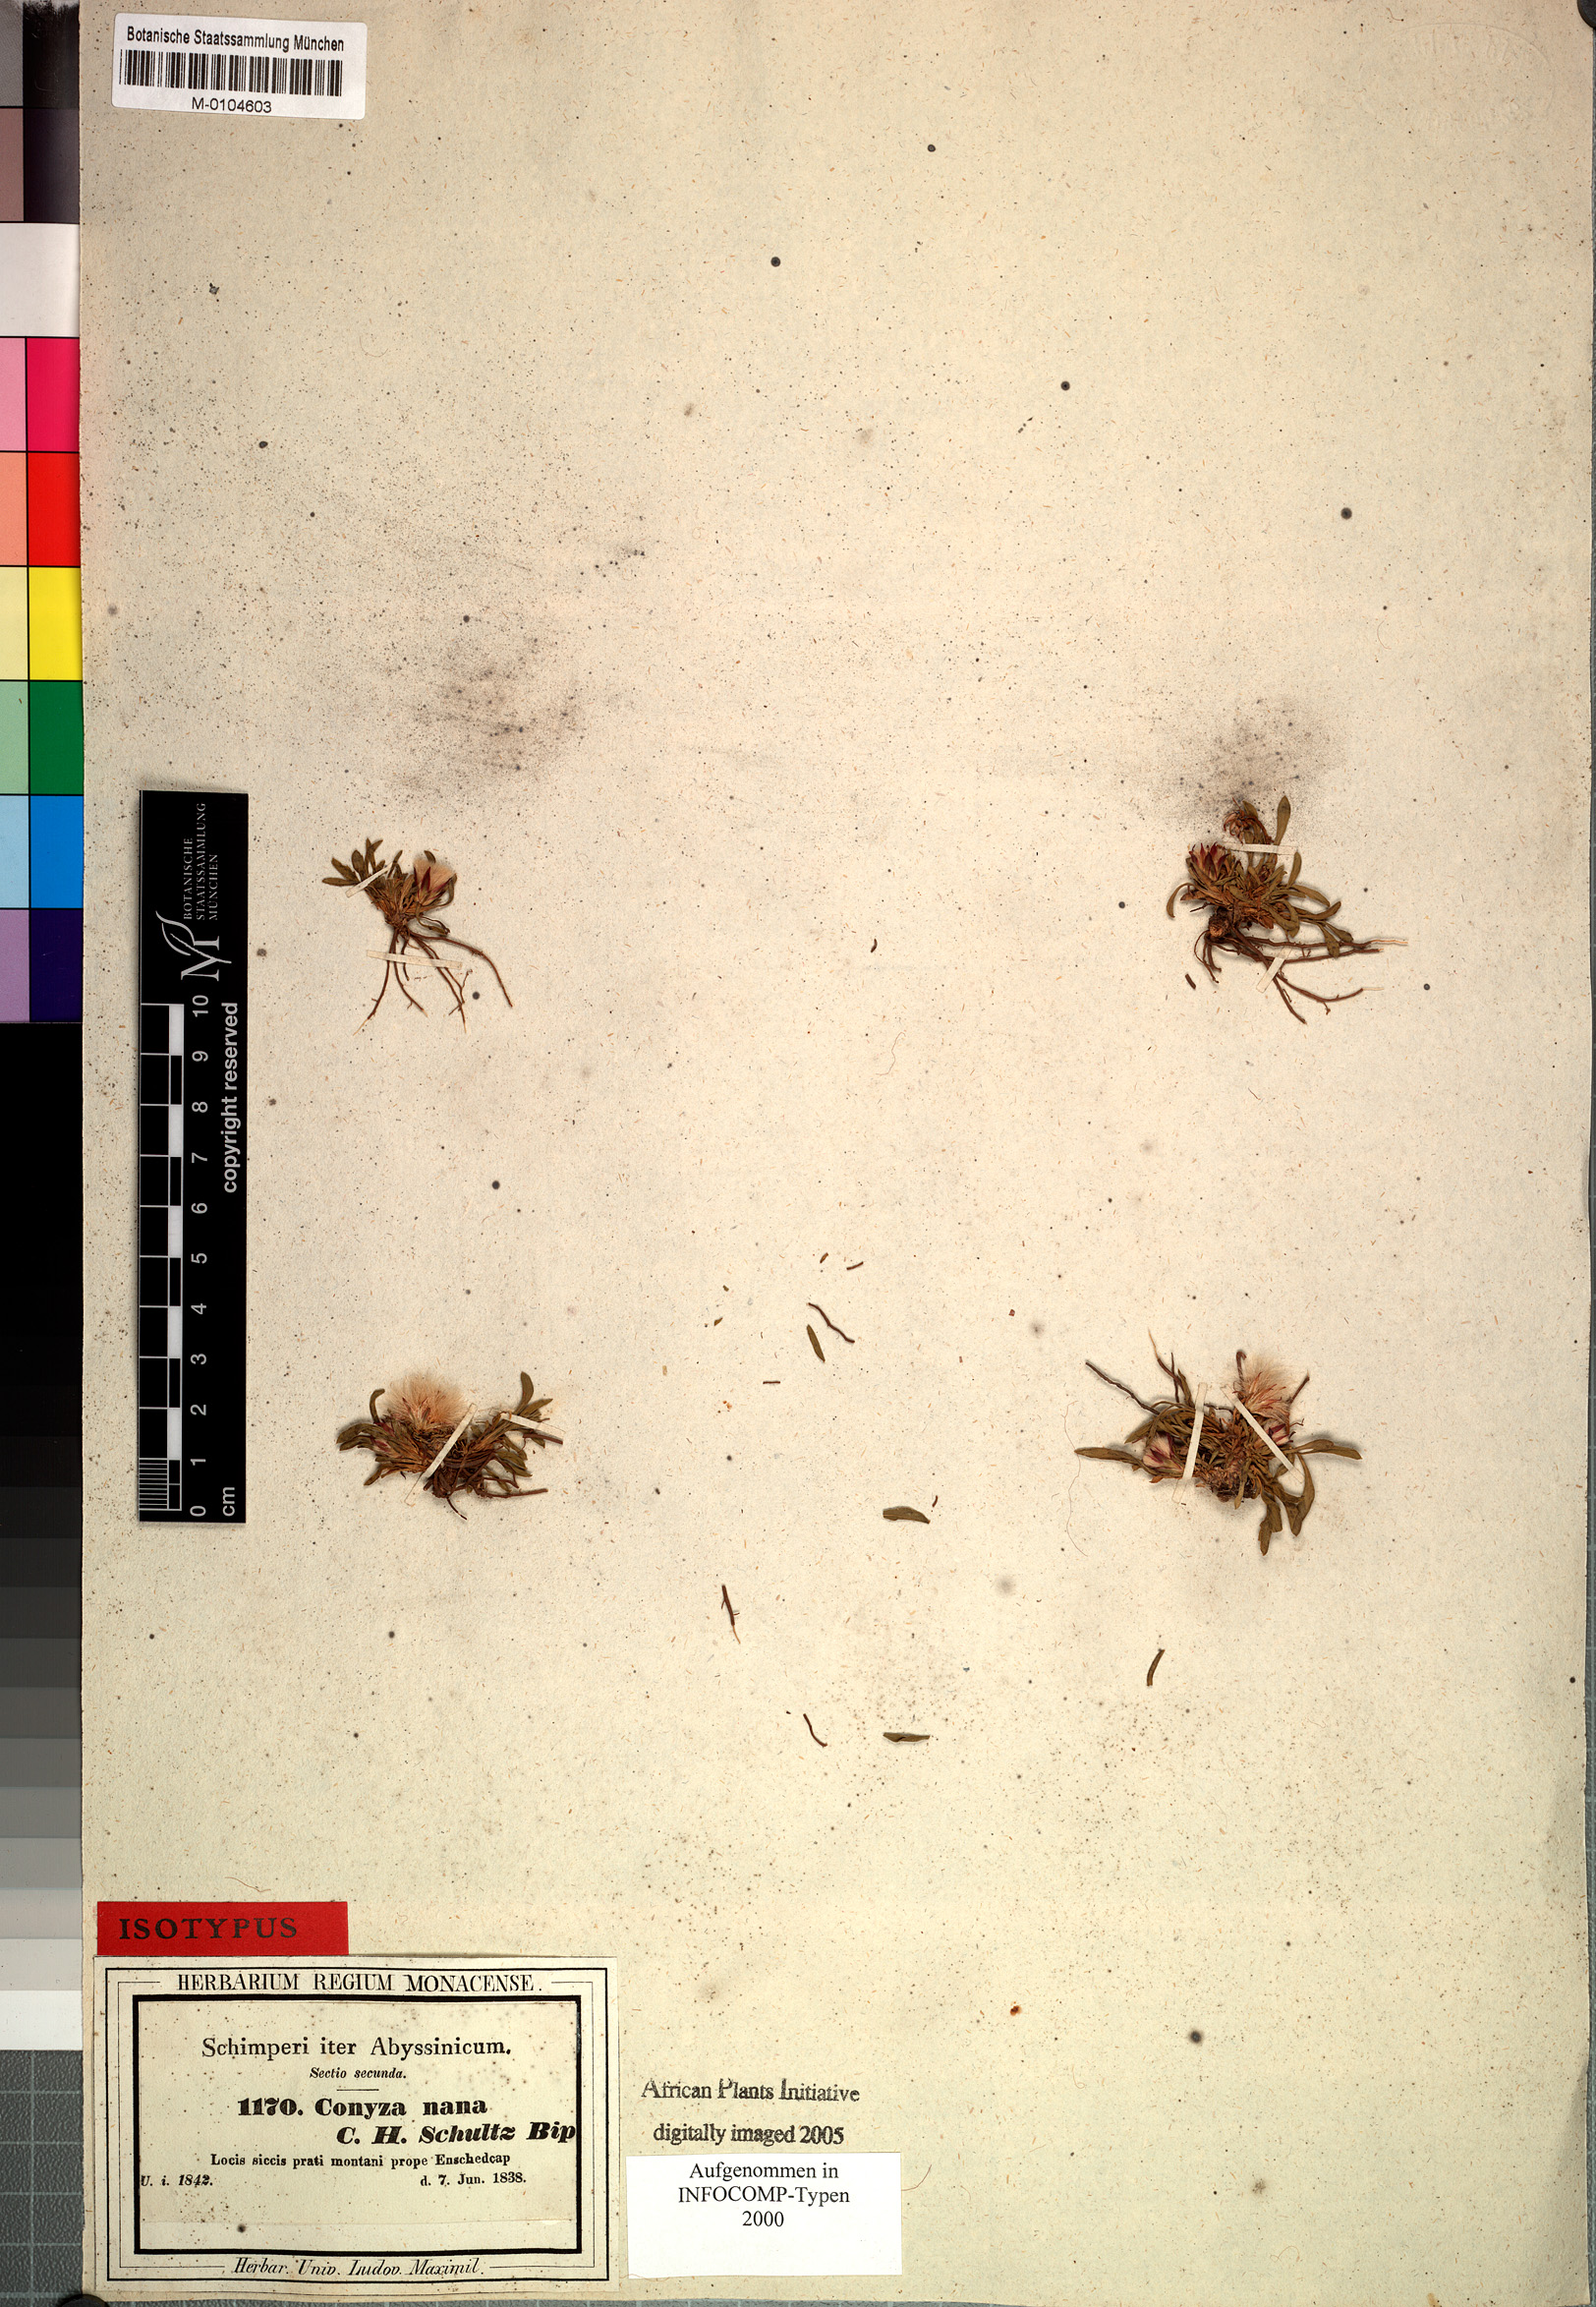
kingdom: Plantae
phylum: Tracheophyta
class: Magnoliopsida
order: Asterales
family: Asteraceae
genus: Conyza
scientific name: Conyza nana
